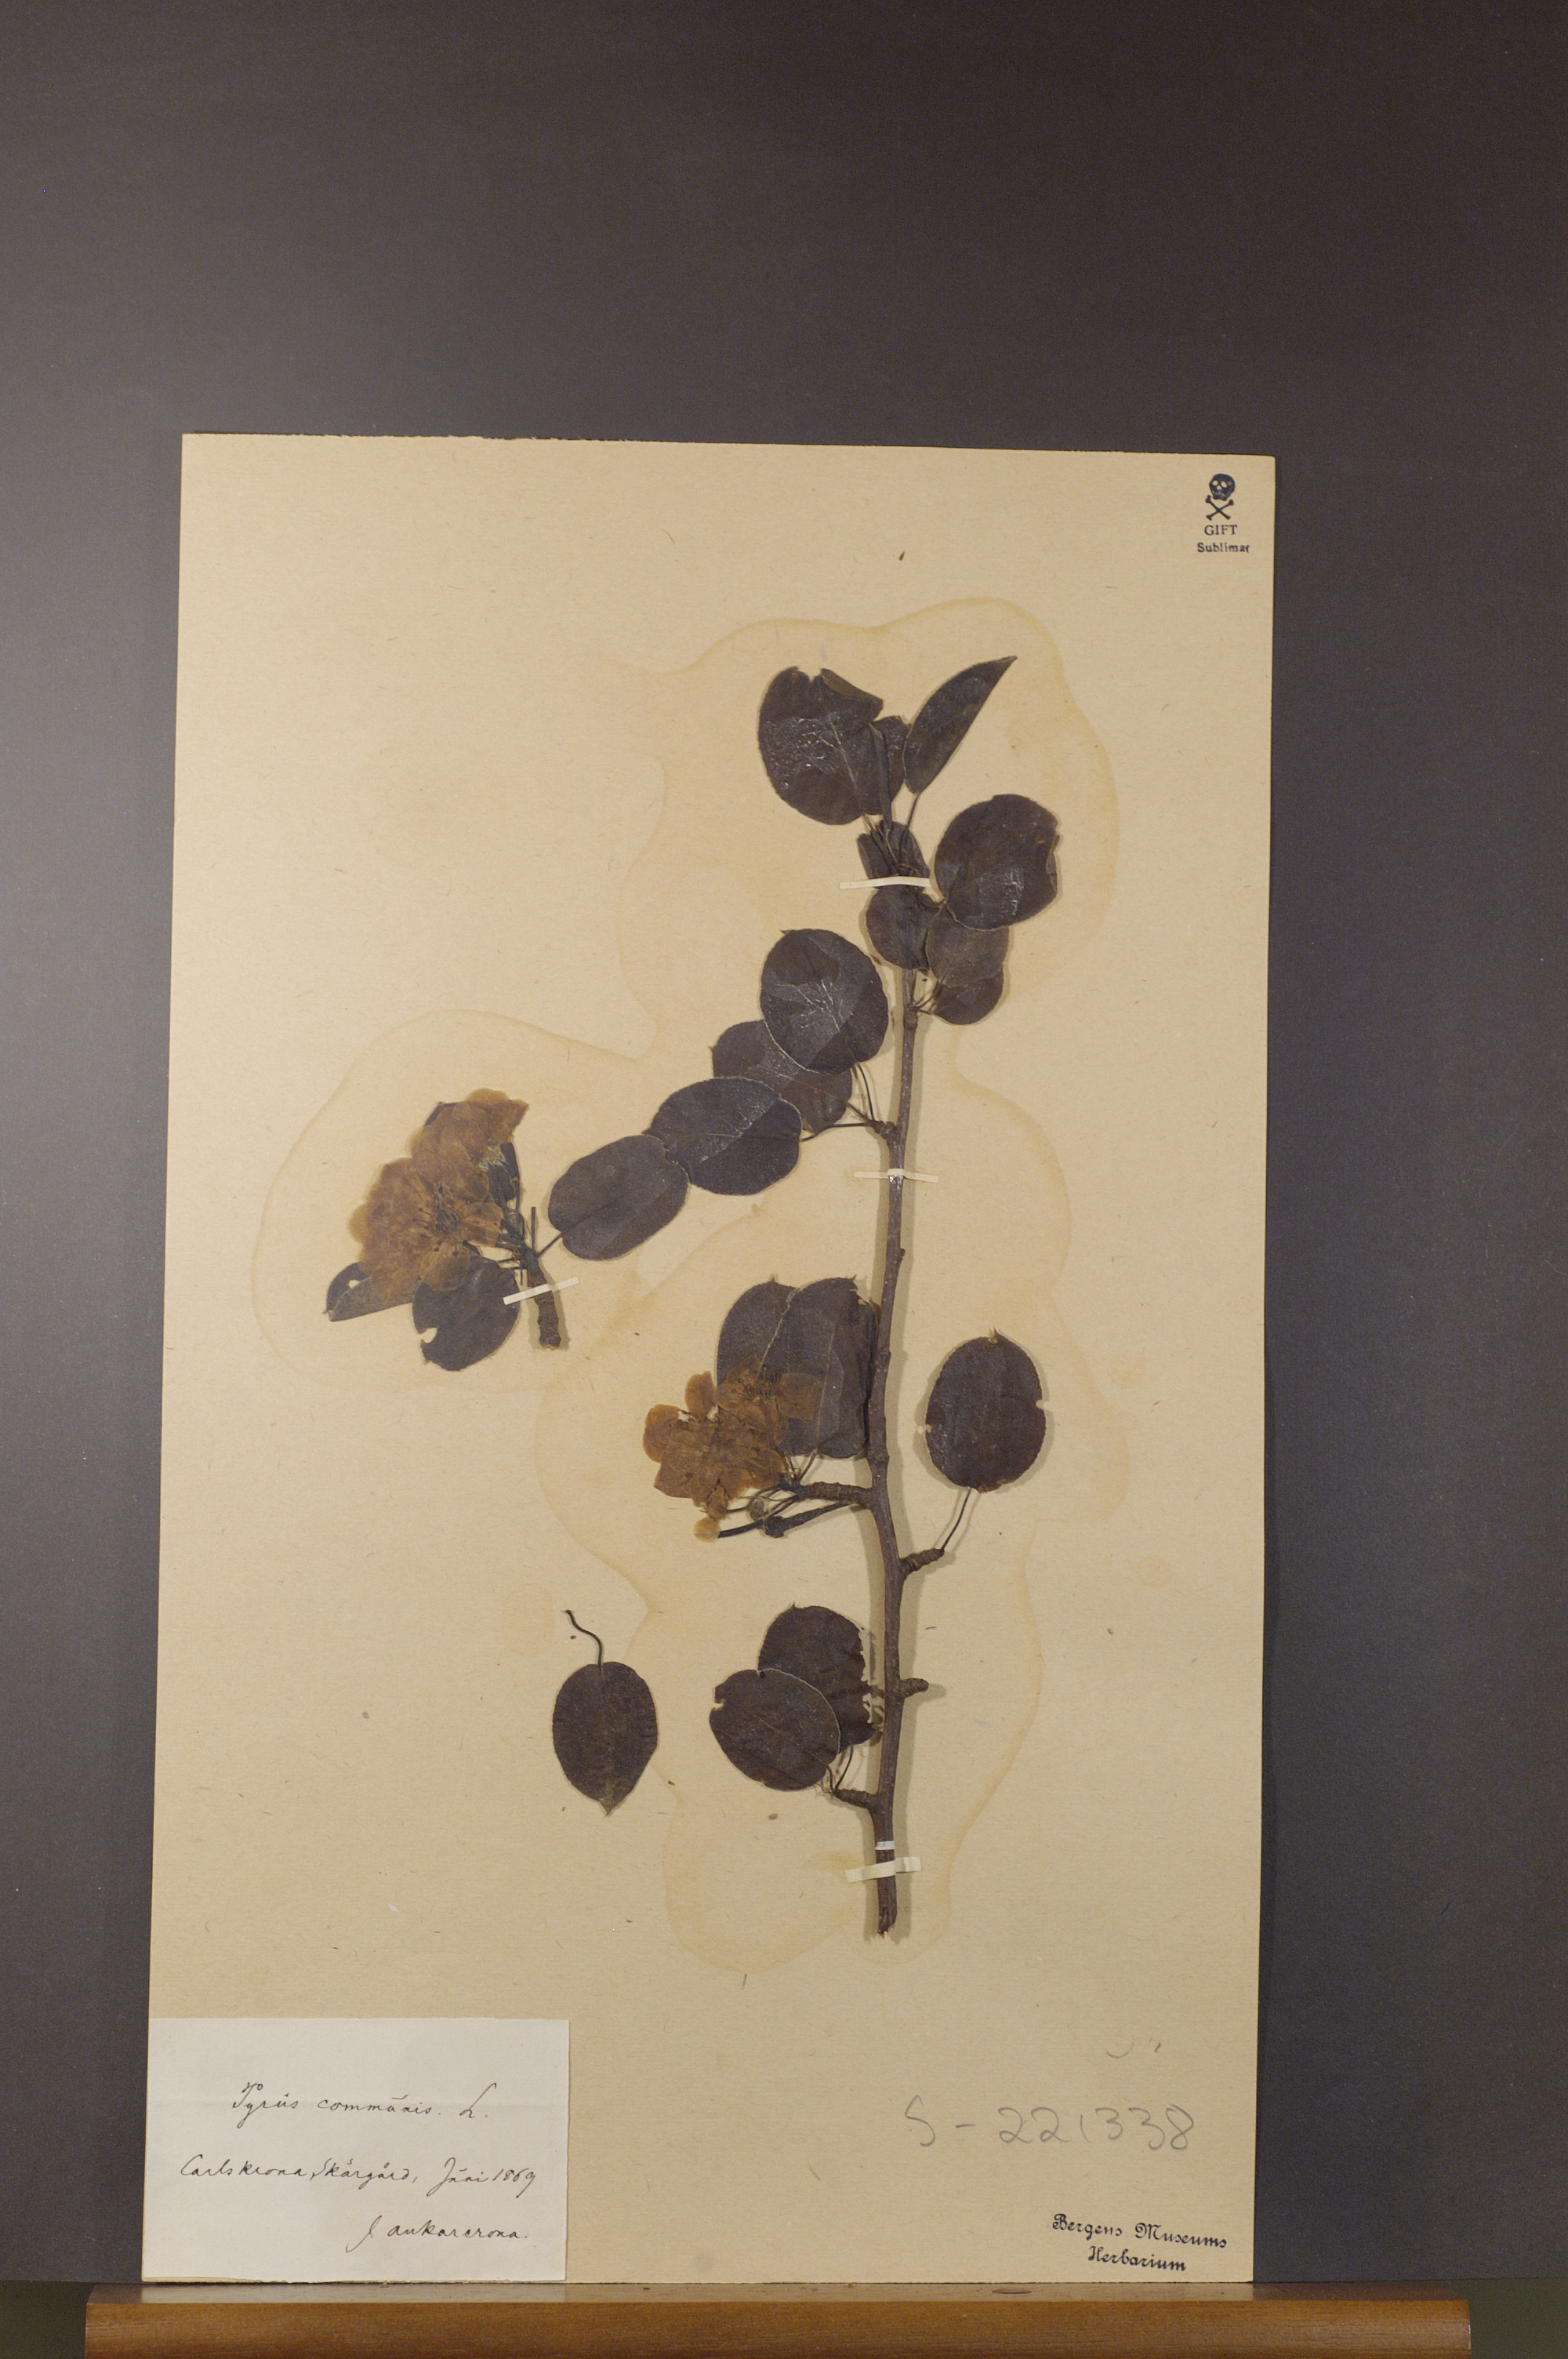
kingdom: Plantae
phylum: Tracheophyta
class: Magnoliopsida
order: Rosales
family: Rosaceae
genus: Pyrus
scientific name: Pyrus communis
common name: Pear
